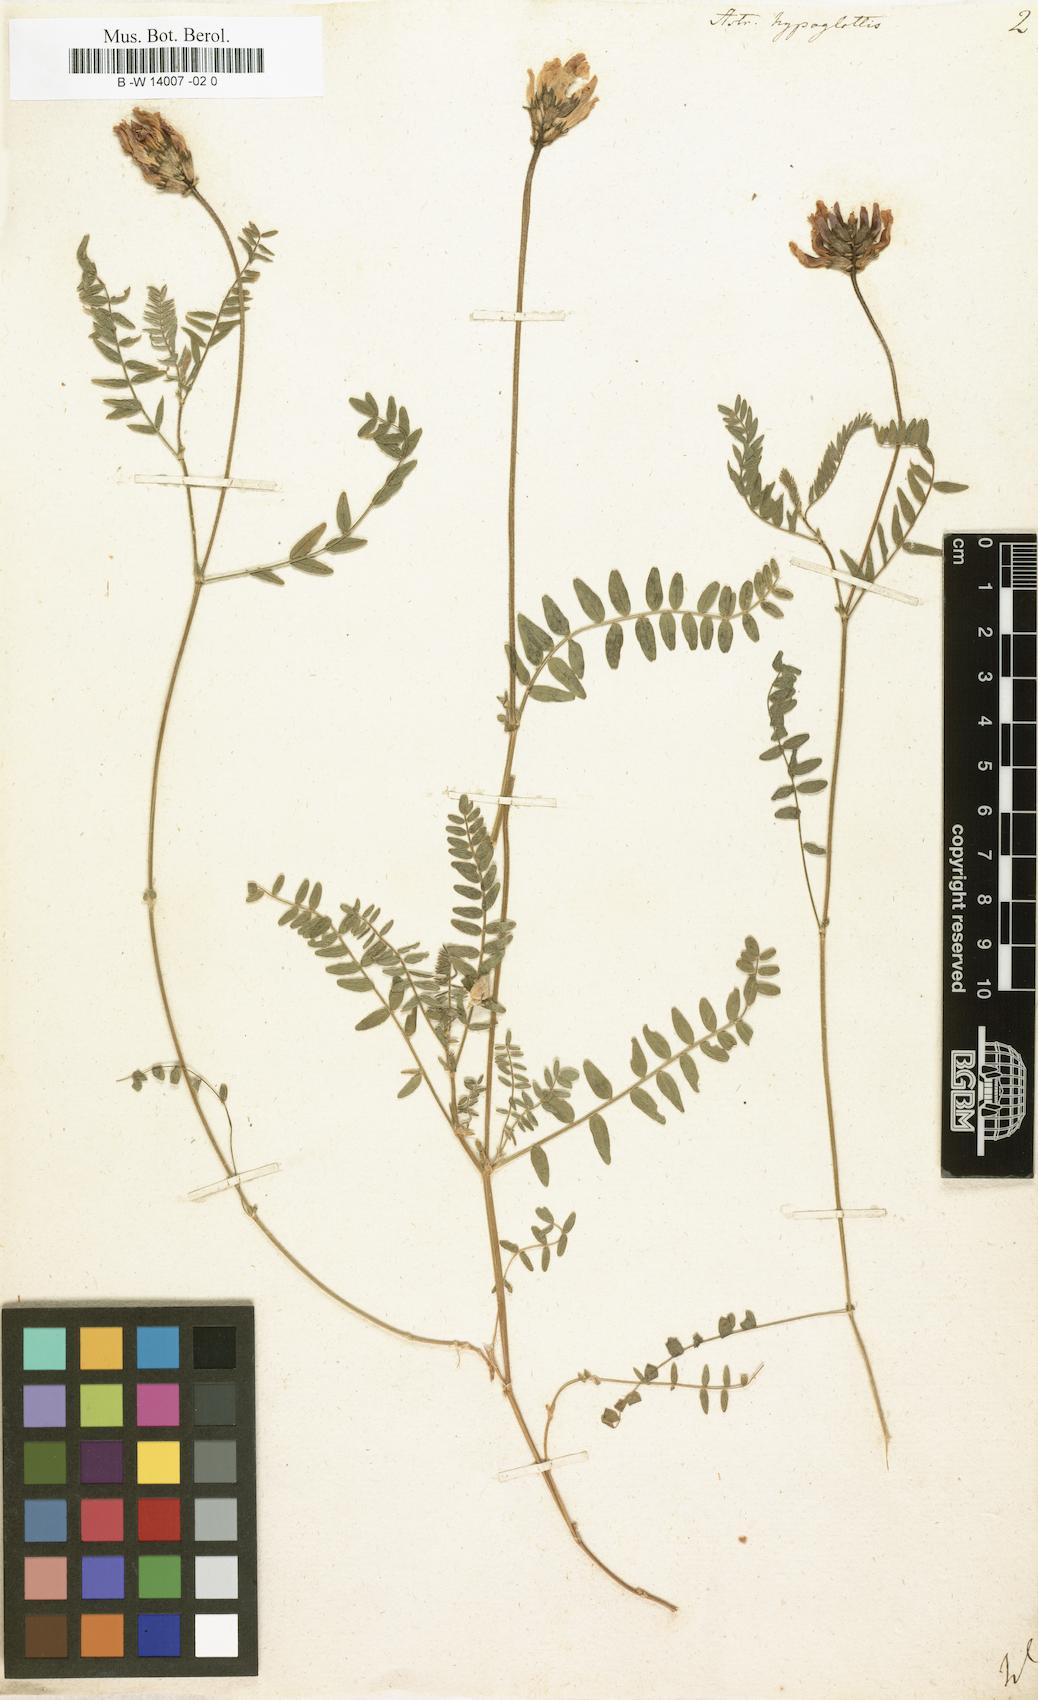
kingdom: Plantae
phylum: Tracheophyta
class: Magnoliopsida
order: Fabales
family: Fabaceae
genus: Astragalus
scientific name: Astragalus hypoglottis
